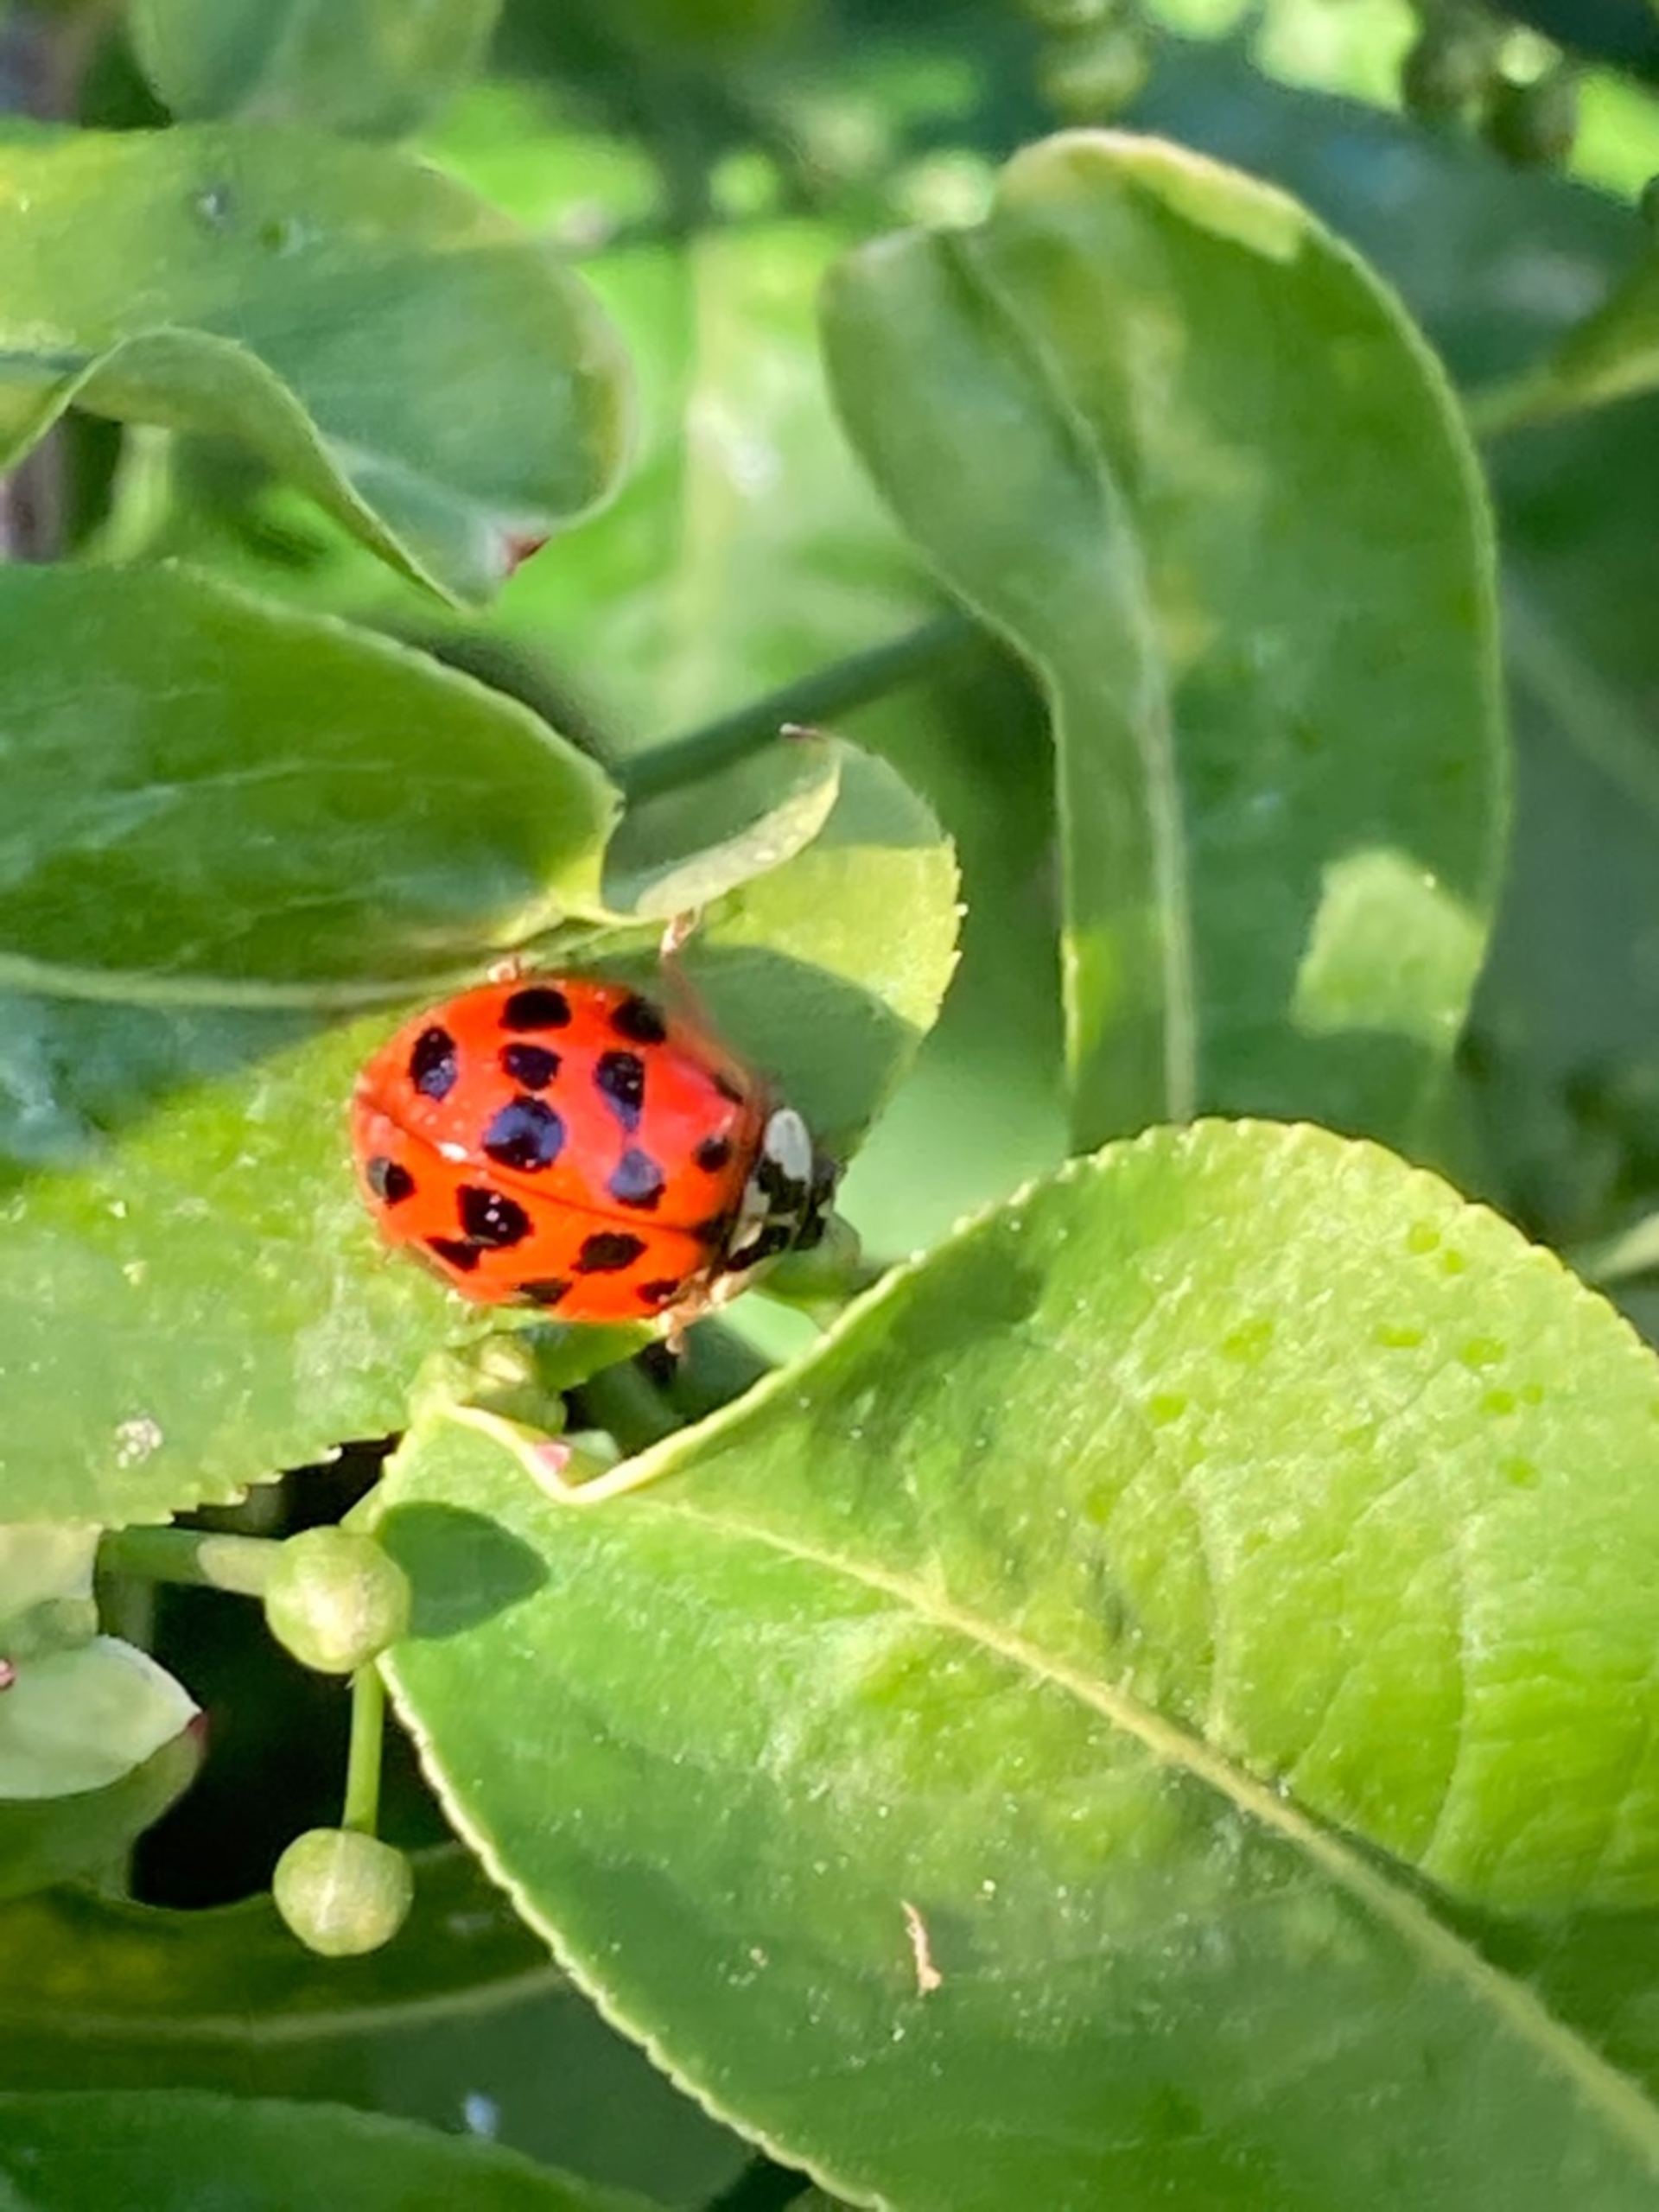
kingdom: Animalia
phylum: Arthropoda
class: Insecta
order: Coleoptera
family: Coccinellidae
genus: Harmonia
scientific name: Harmonia axyridis
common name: Harlekinmariehøne
